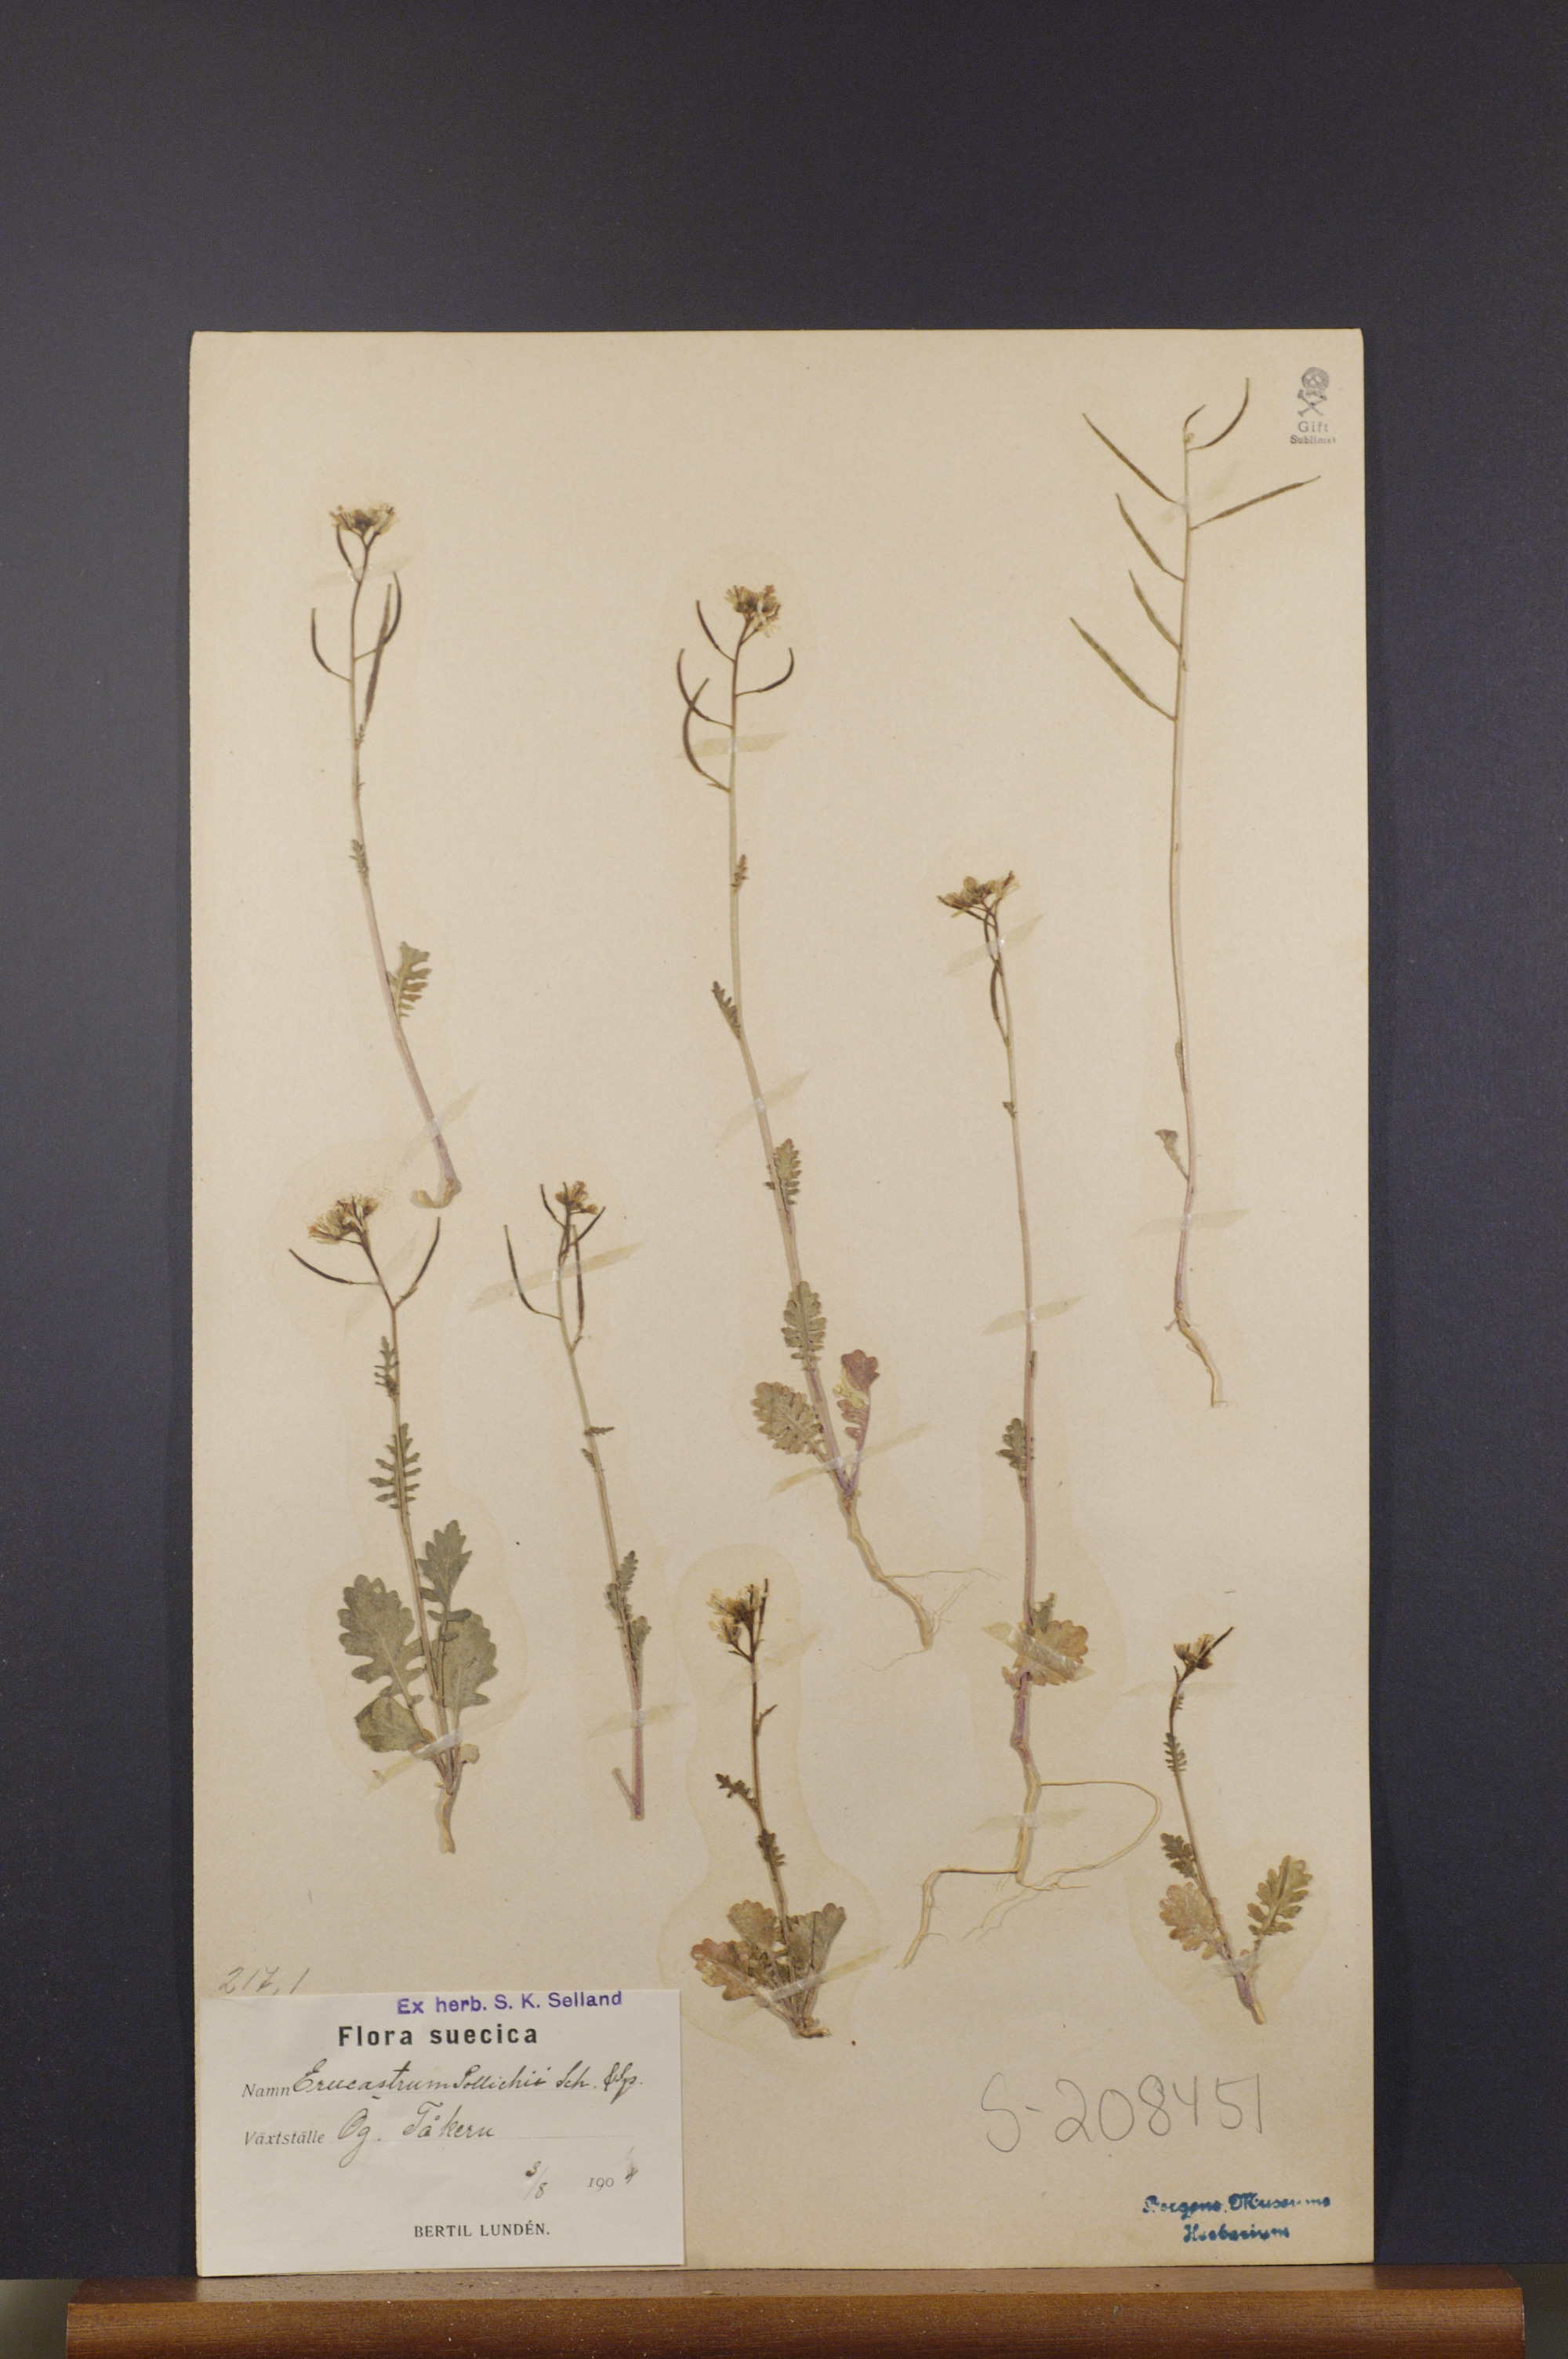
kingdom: Plantae
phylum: Tracheophyta
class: Magnoliopsida
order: Brassicales
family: Brassicaceae
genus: Erucastrum
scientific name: Erucastrum gallicum
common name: Hairy rocket
